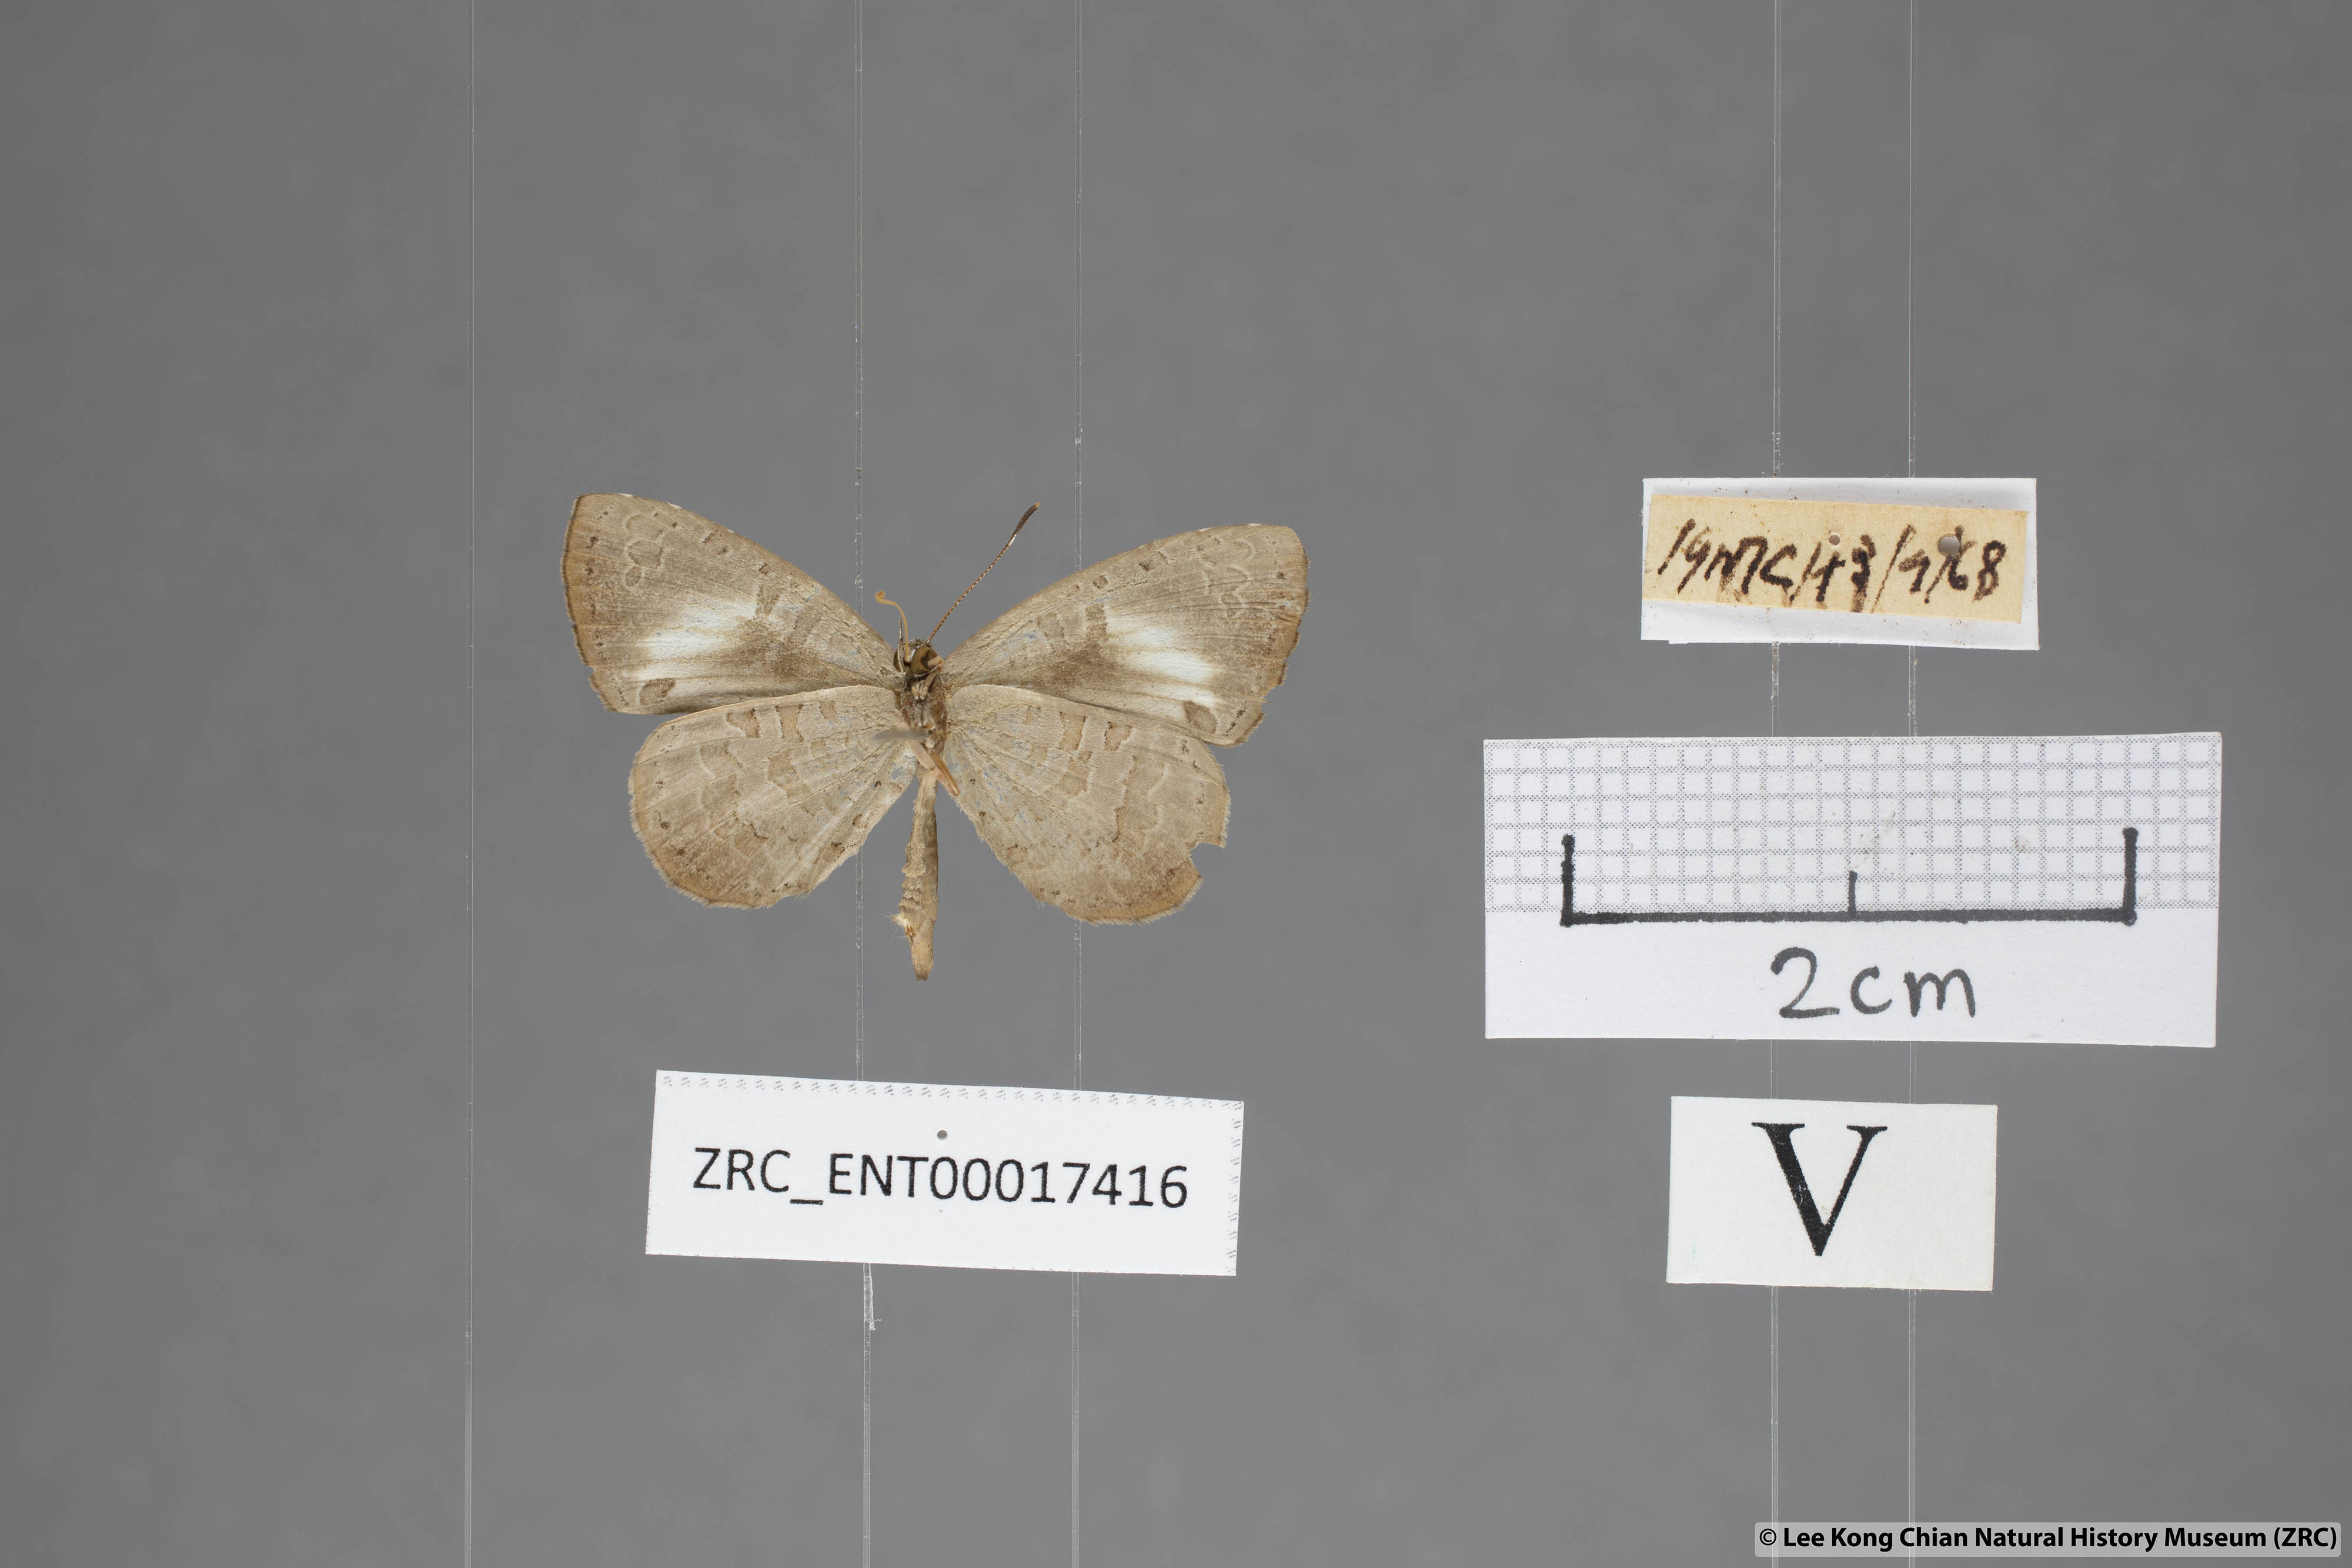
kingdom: Animalia
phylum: Arthropoda
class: Insecta
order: Lepidoptera
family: Lycaenidae
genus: Miletus
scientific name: Miletus biggsii
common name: Bigg's brownie
